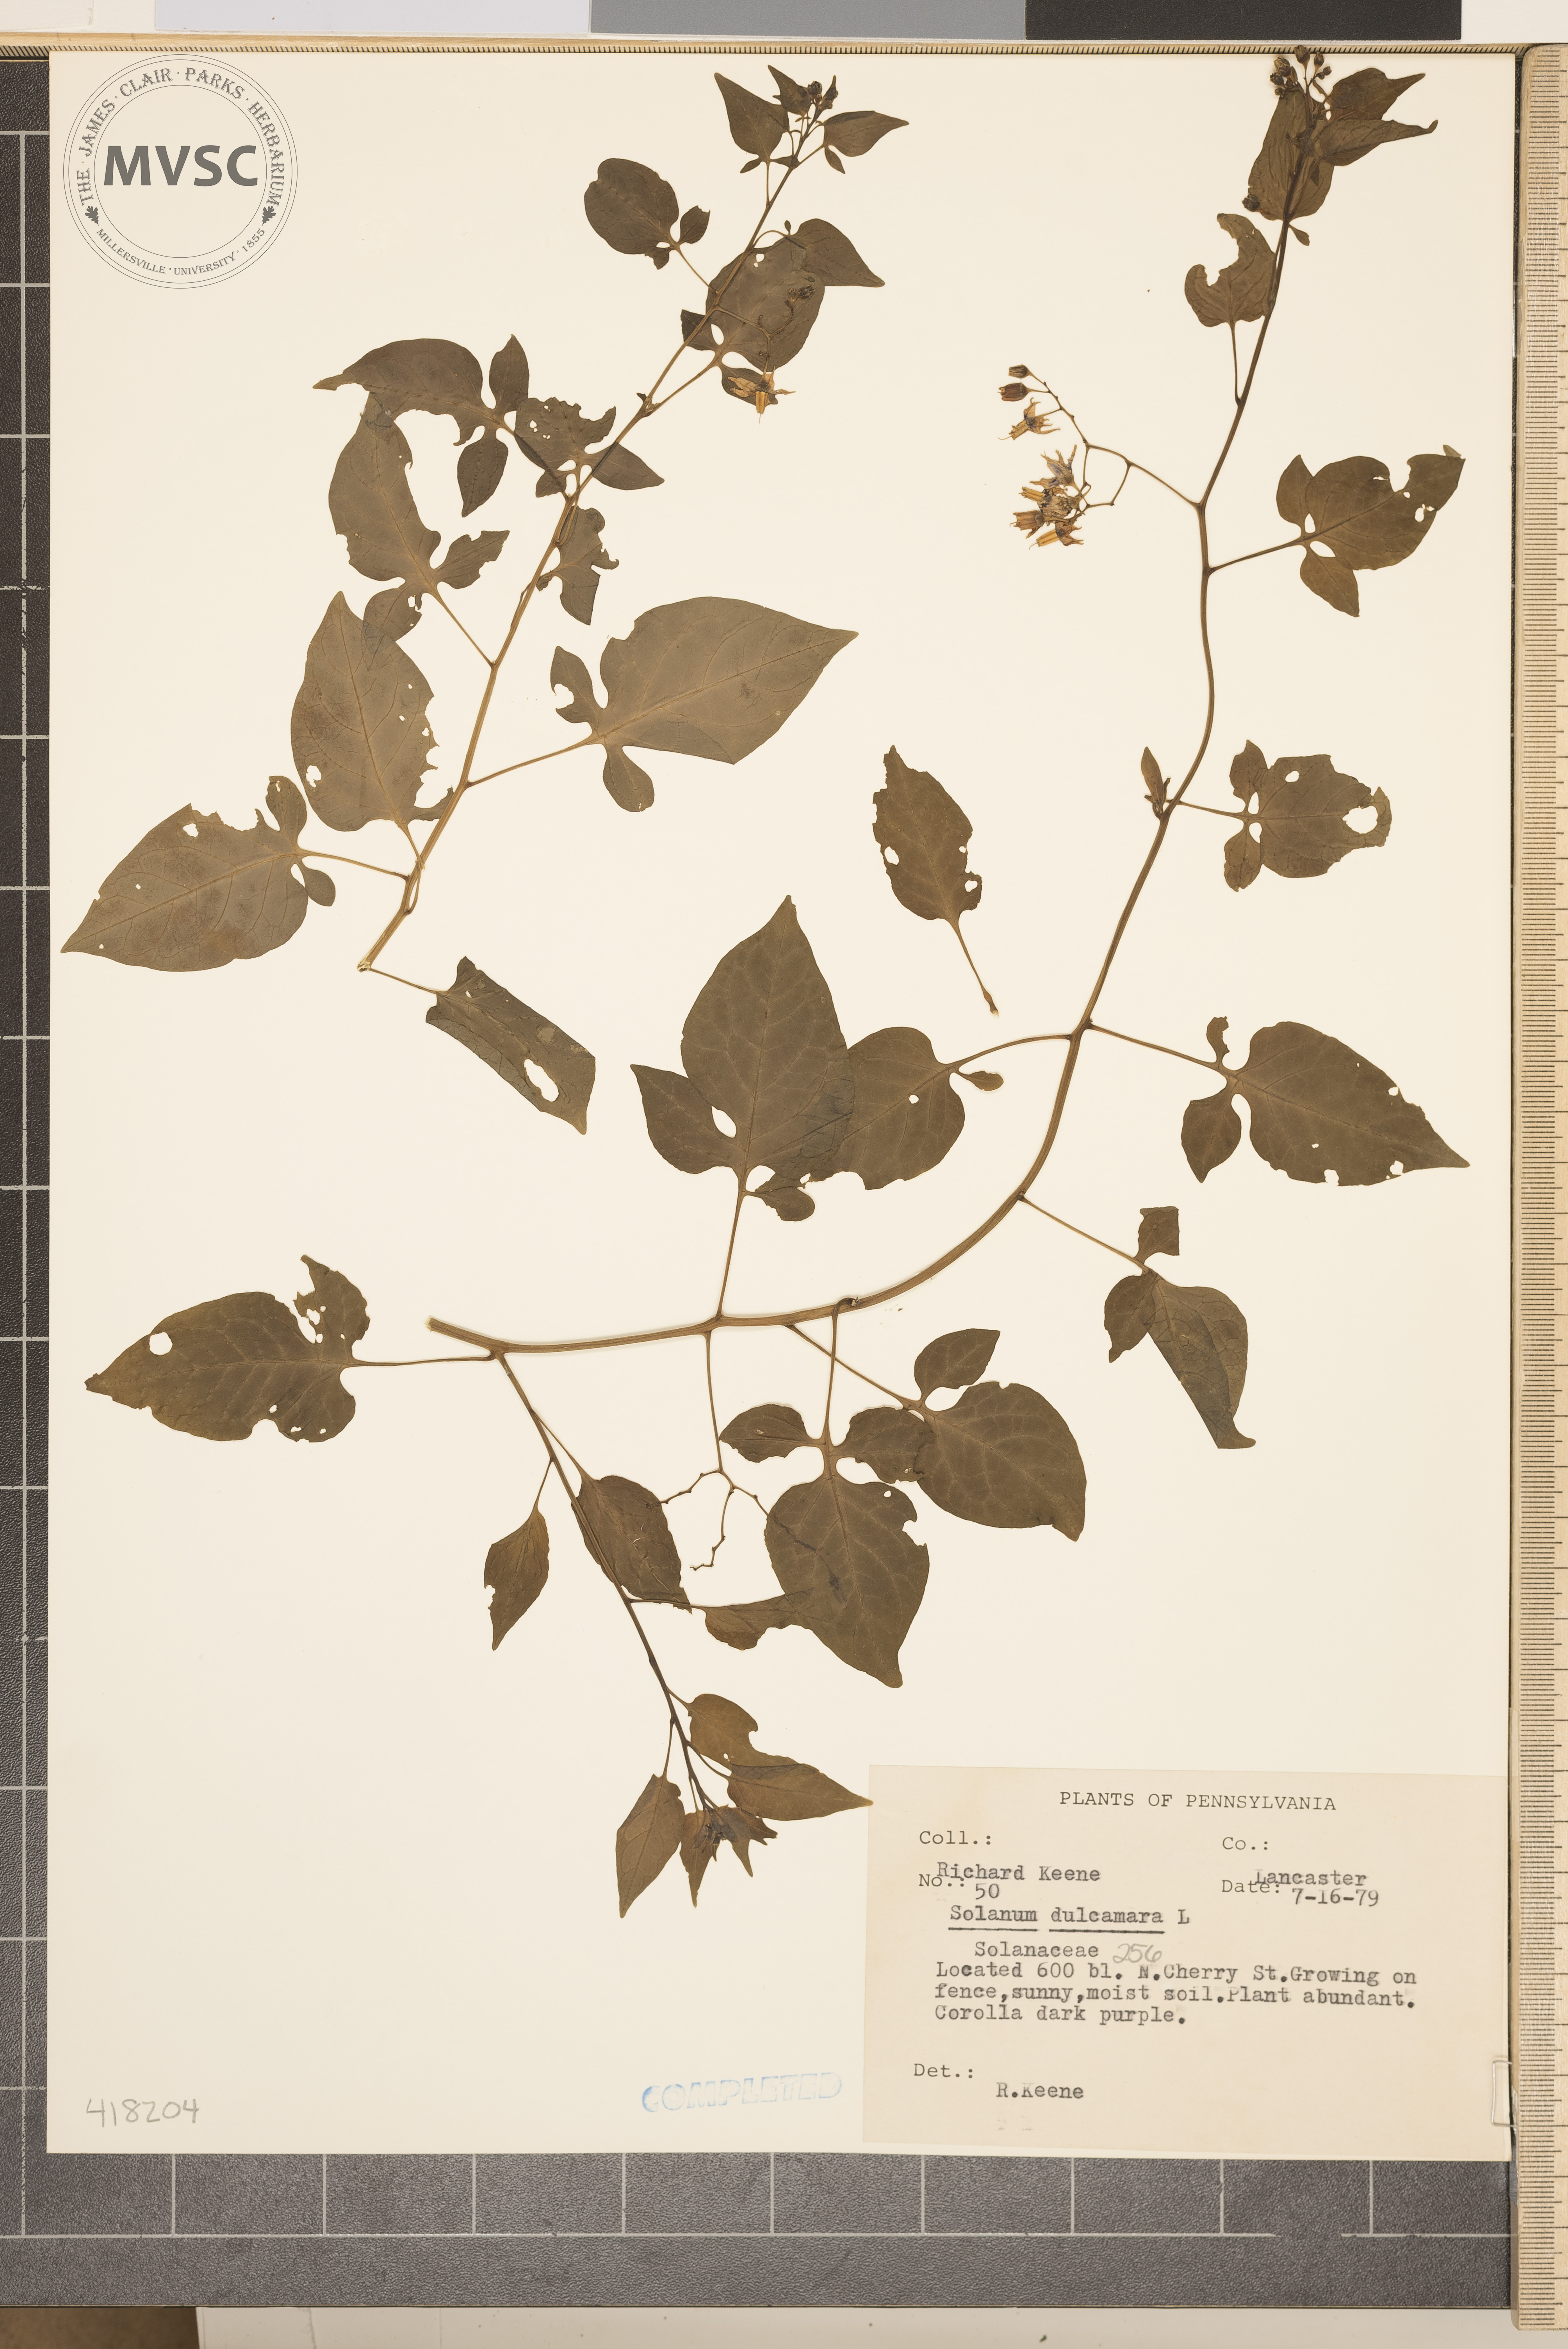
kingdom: Plantae
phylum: Tracheophyta
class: Magnoliopsida
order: Solanales
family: Solanaceae
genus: Solanum
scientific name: Solanum dulcamara
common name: Bittersweet Nightshade
